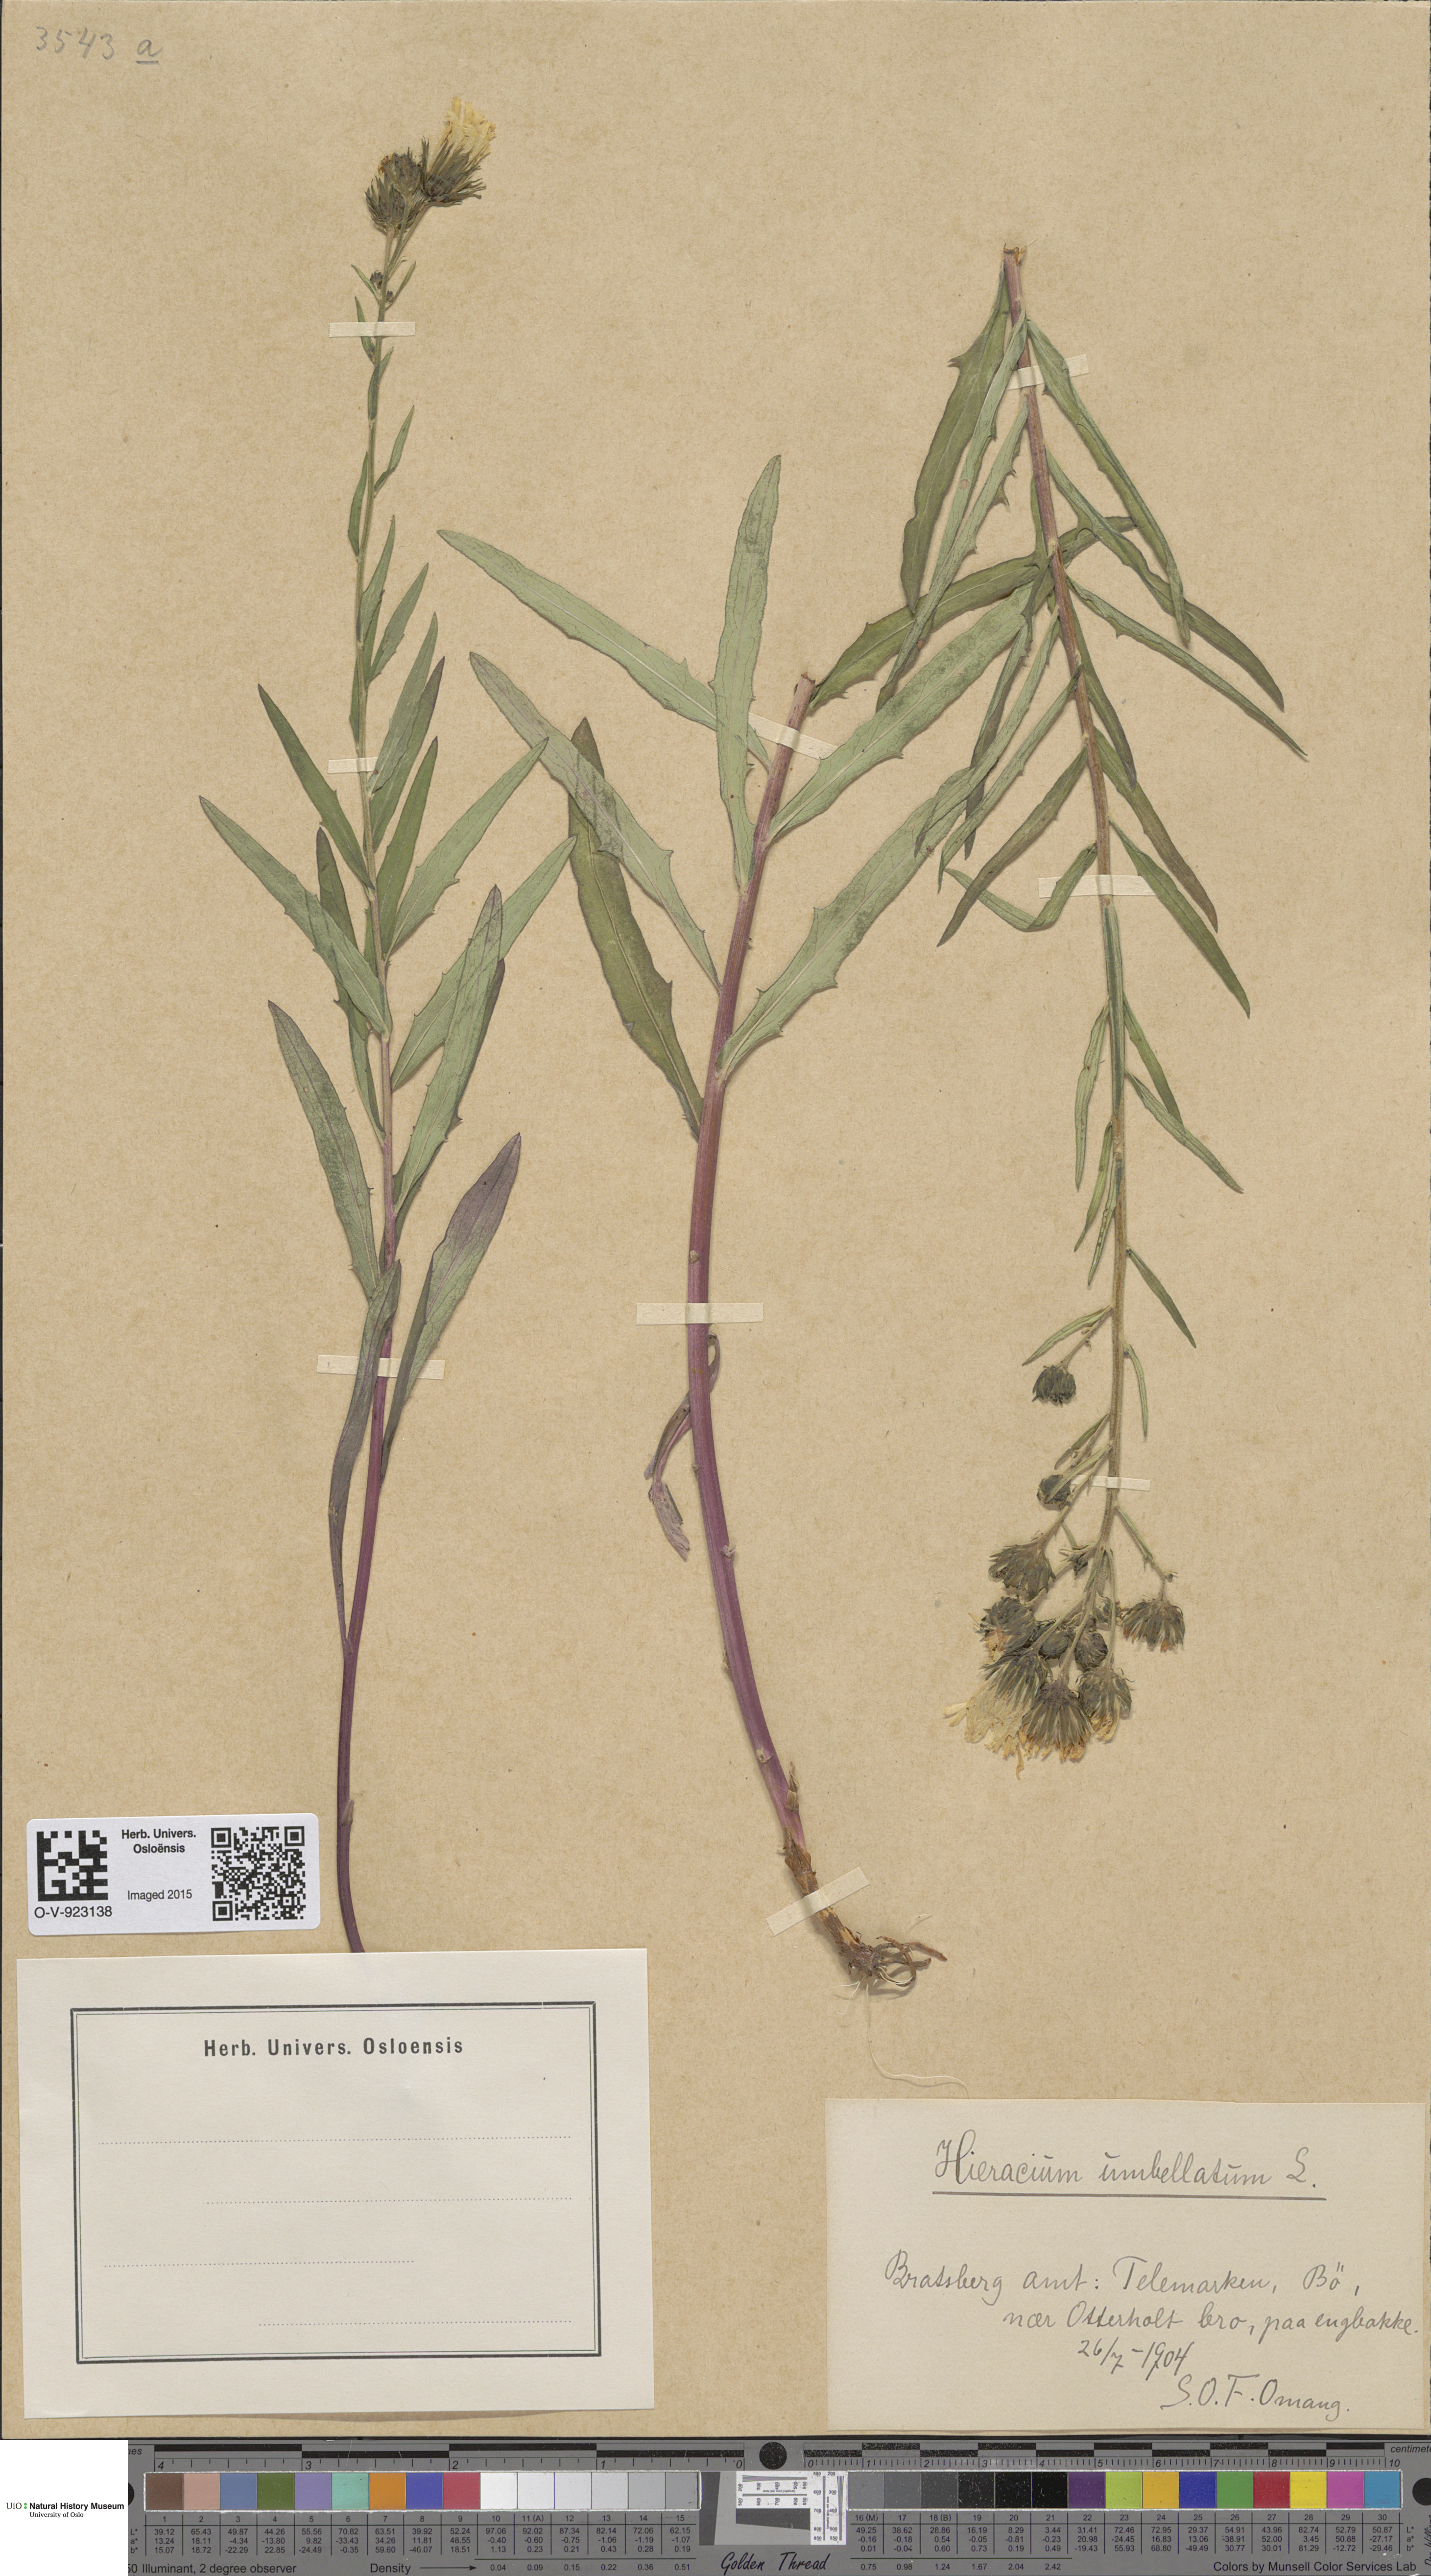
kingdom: Plantae
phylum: Tracheophyta
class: Magnoliopsida
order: Asterales
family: Asteraceae
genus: Hieracium
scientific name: Hieracium umbellatum
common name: Northern hawkweed
